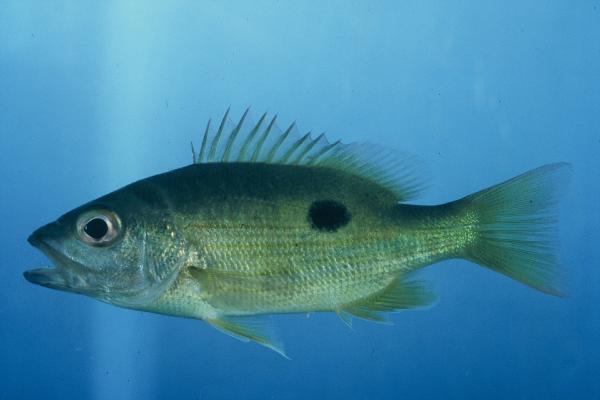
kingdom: Animalia
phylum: Chordata
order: Perciformes
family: Lutjanidae
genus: Lutjanus
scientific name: Lutjanus fulviflamma
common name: Blackspot snapper
